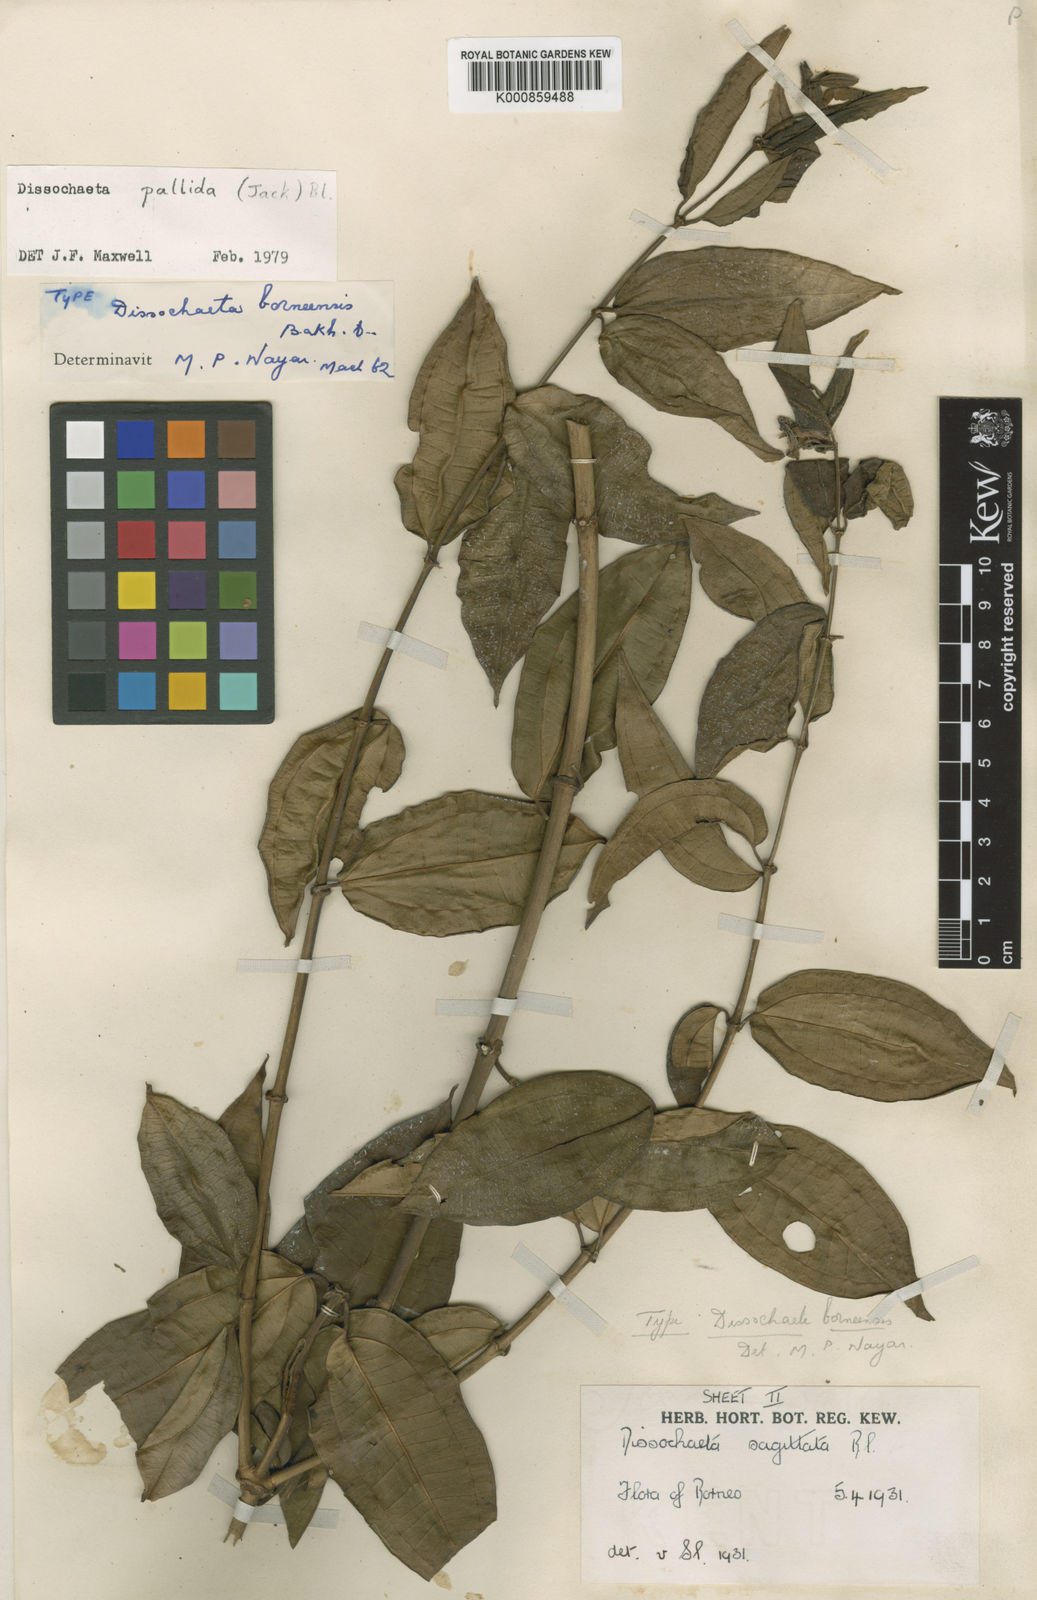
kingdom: Plantae
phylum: Tracheophyta
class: Magnoliopsida
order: Myrtales
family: Melastomataceae
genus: Dissochaeta
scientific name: Dissochaeta pallida
